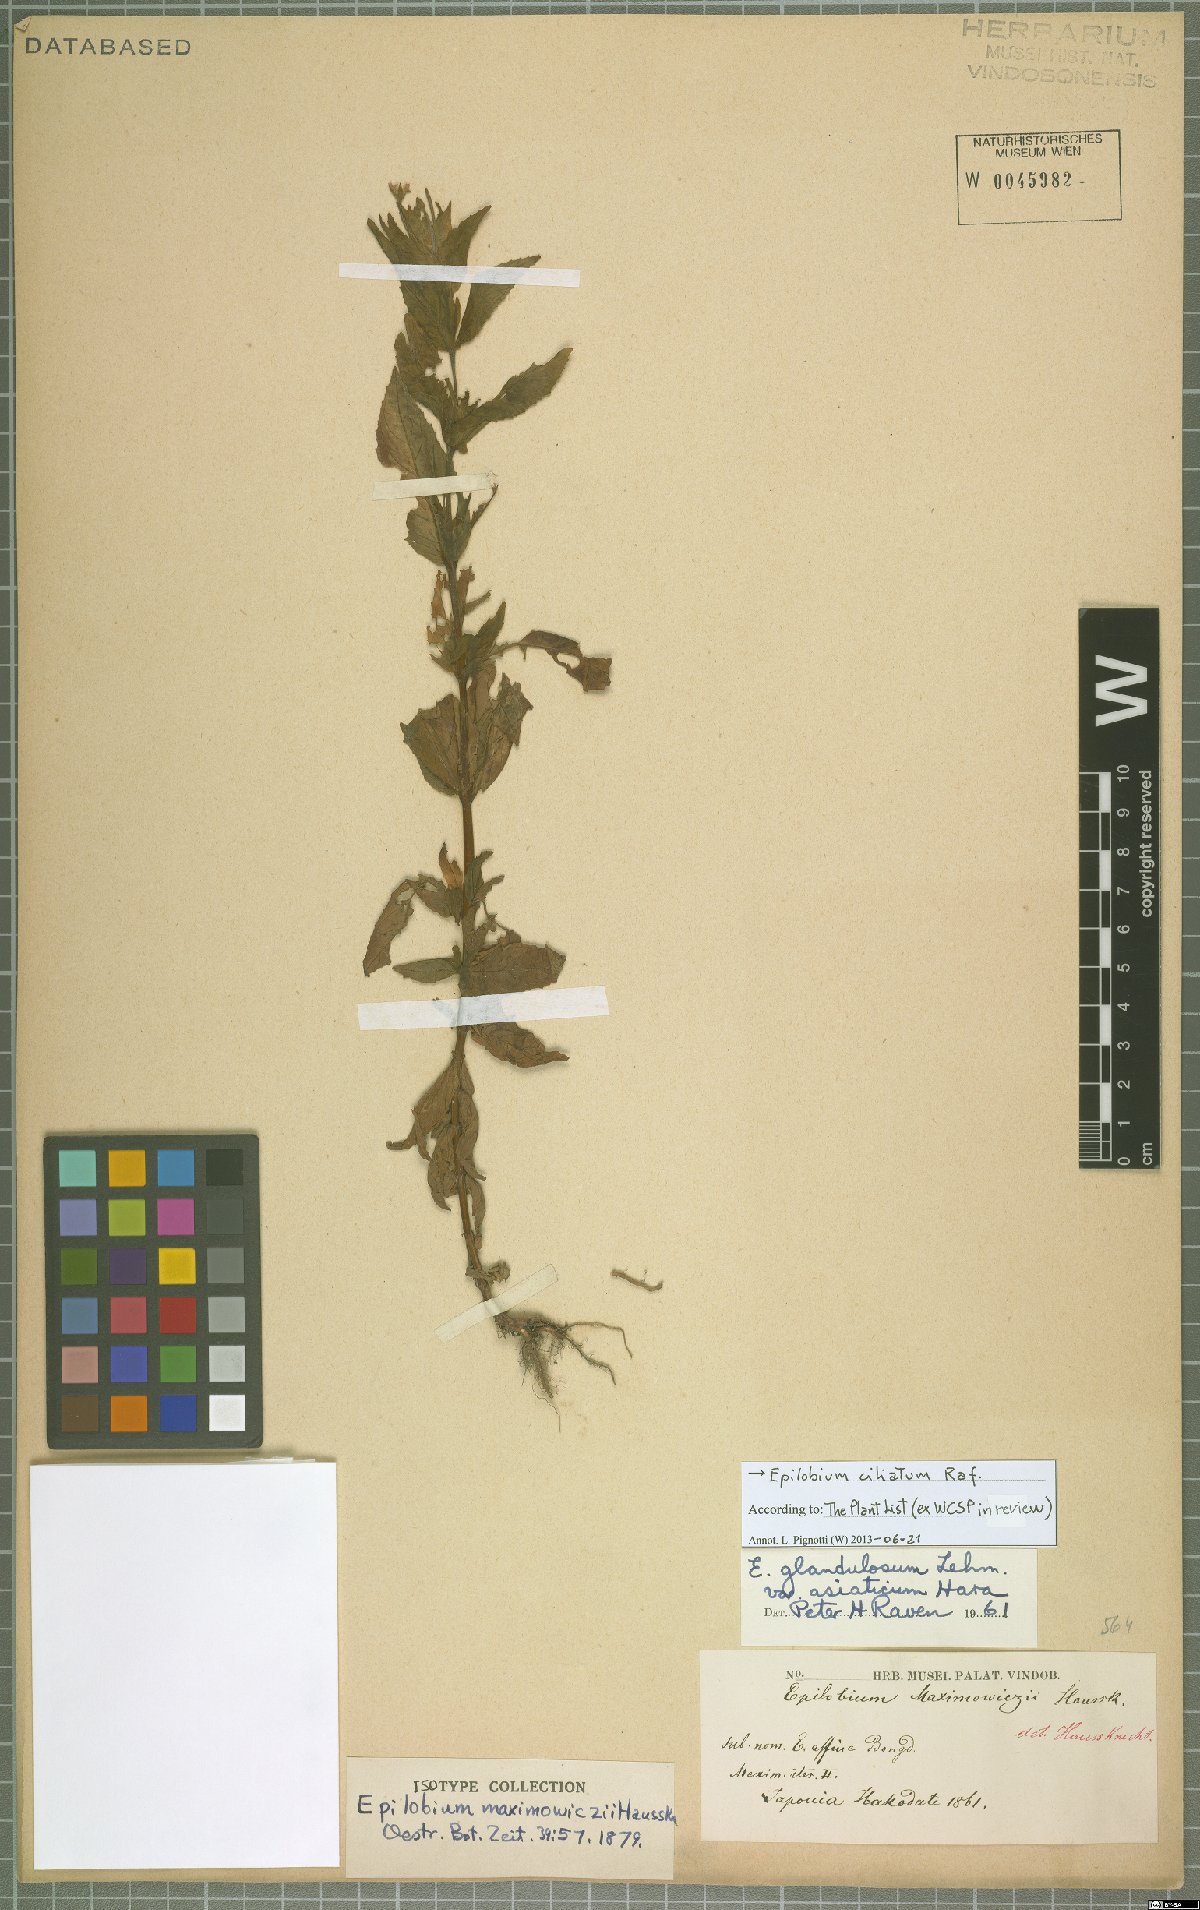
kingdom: Plantae
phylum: Tracheophyta
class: Magnoliopsida
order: Myrtales
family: Onagraceae
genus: Epilobium
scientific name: Epilobium ciliatum
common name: American willowherb
